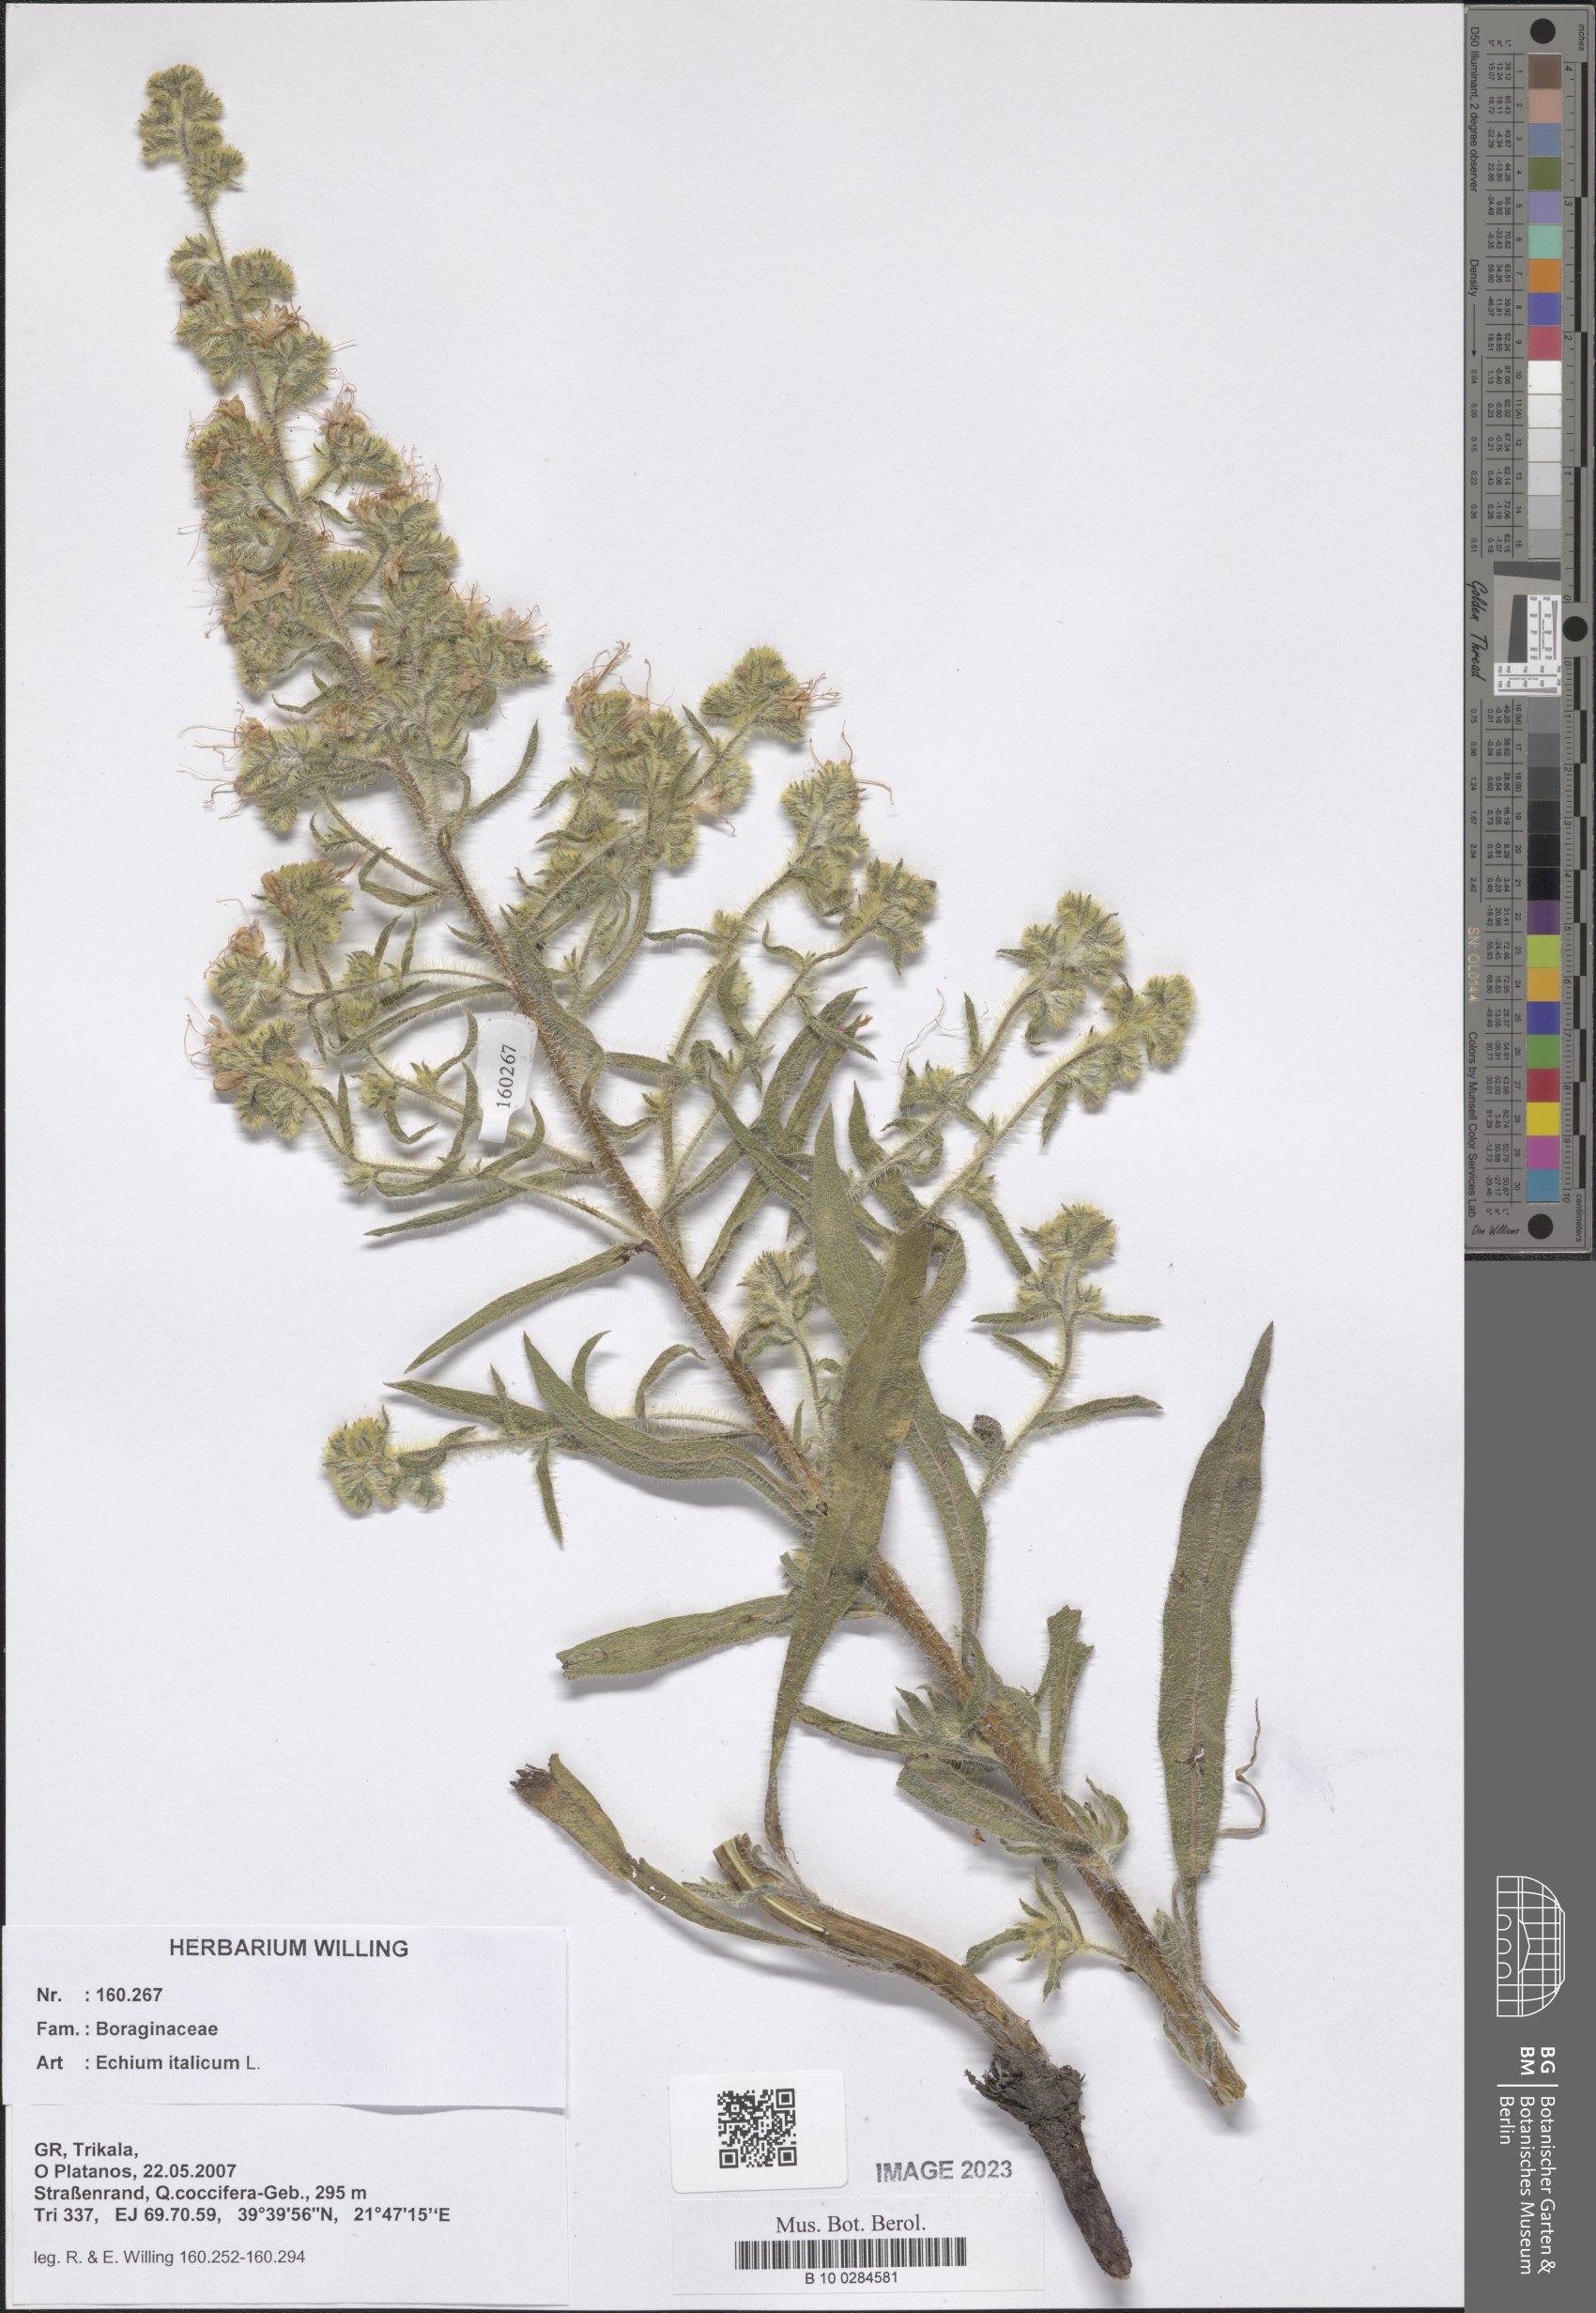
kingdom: Plantae
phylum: Tracheophyta
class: Magnoliopsida
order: Boraginales
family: Boraginaceae
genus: Echium
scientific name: Echium italicum
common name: Italian viper's bugloss
